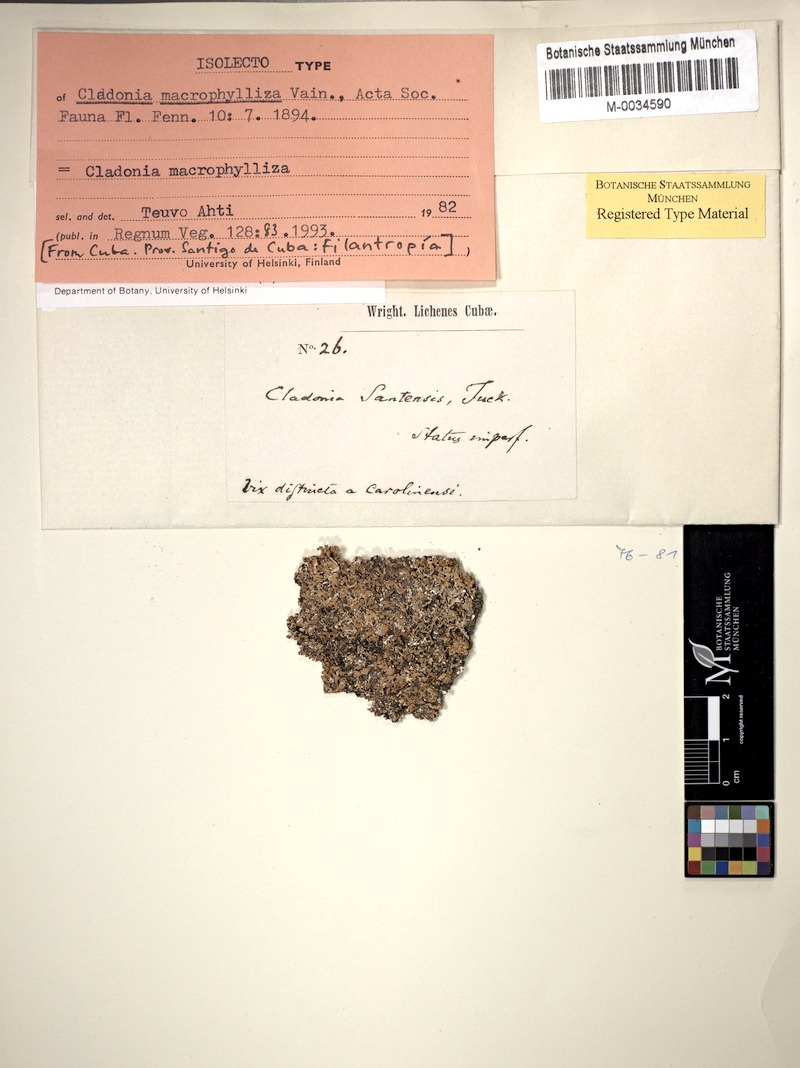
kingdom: Fungi
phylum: Ascomycota
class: Lecanoromycetes
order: Lecanorales
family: Cladoniaceae
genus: Cladonia
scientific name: Cladonia
